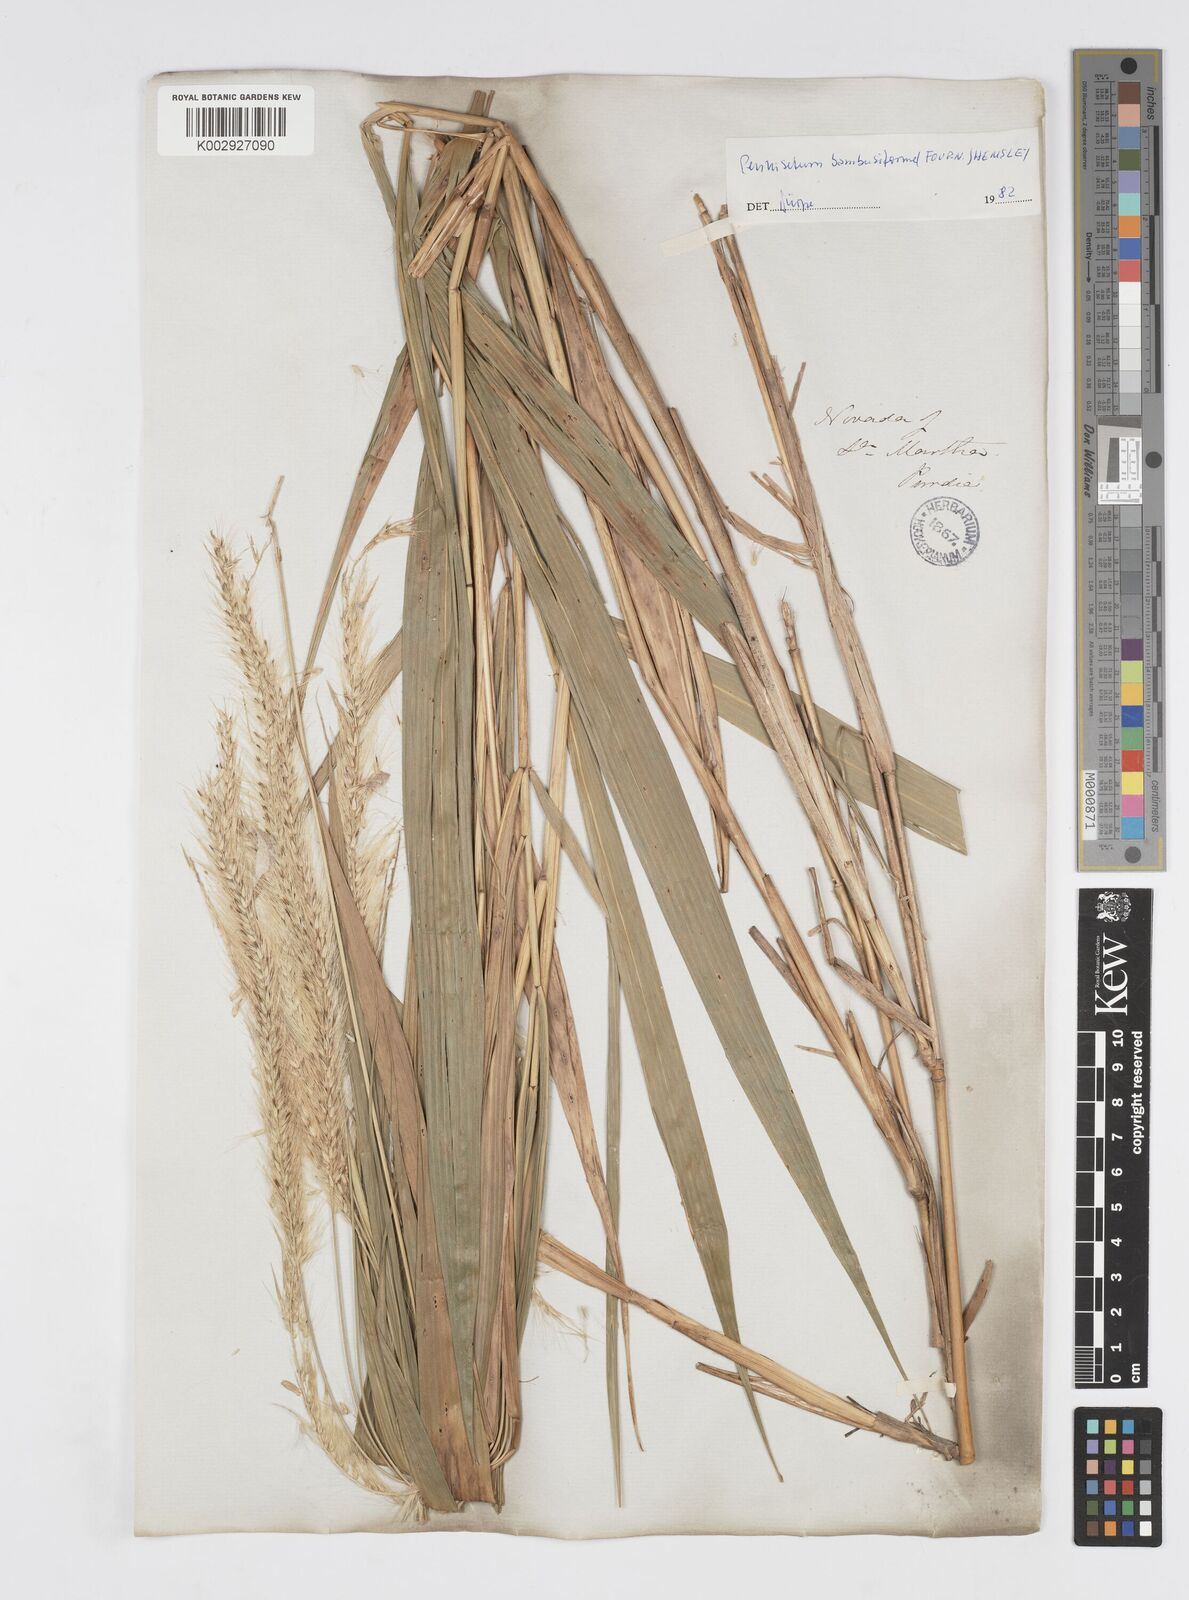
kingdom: Plantae
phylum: Tracheophyta
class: Liliopsida
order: Poales
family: Poaceae
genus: Cenchrus
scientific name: Cenchrus tristachyus
